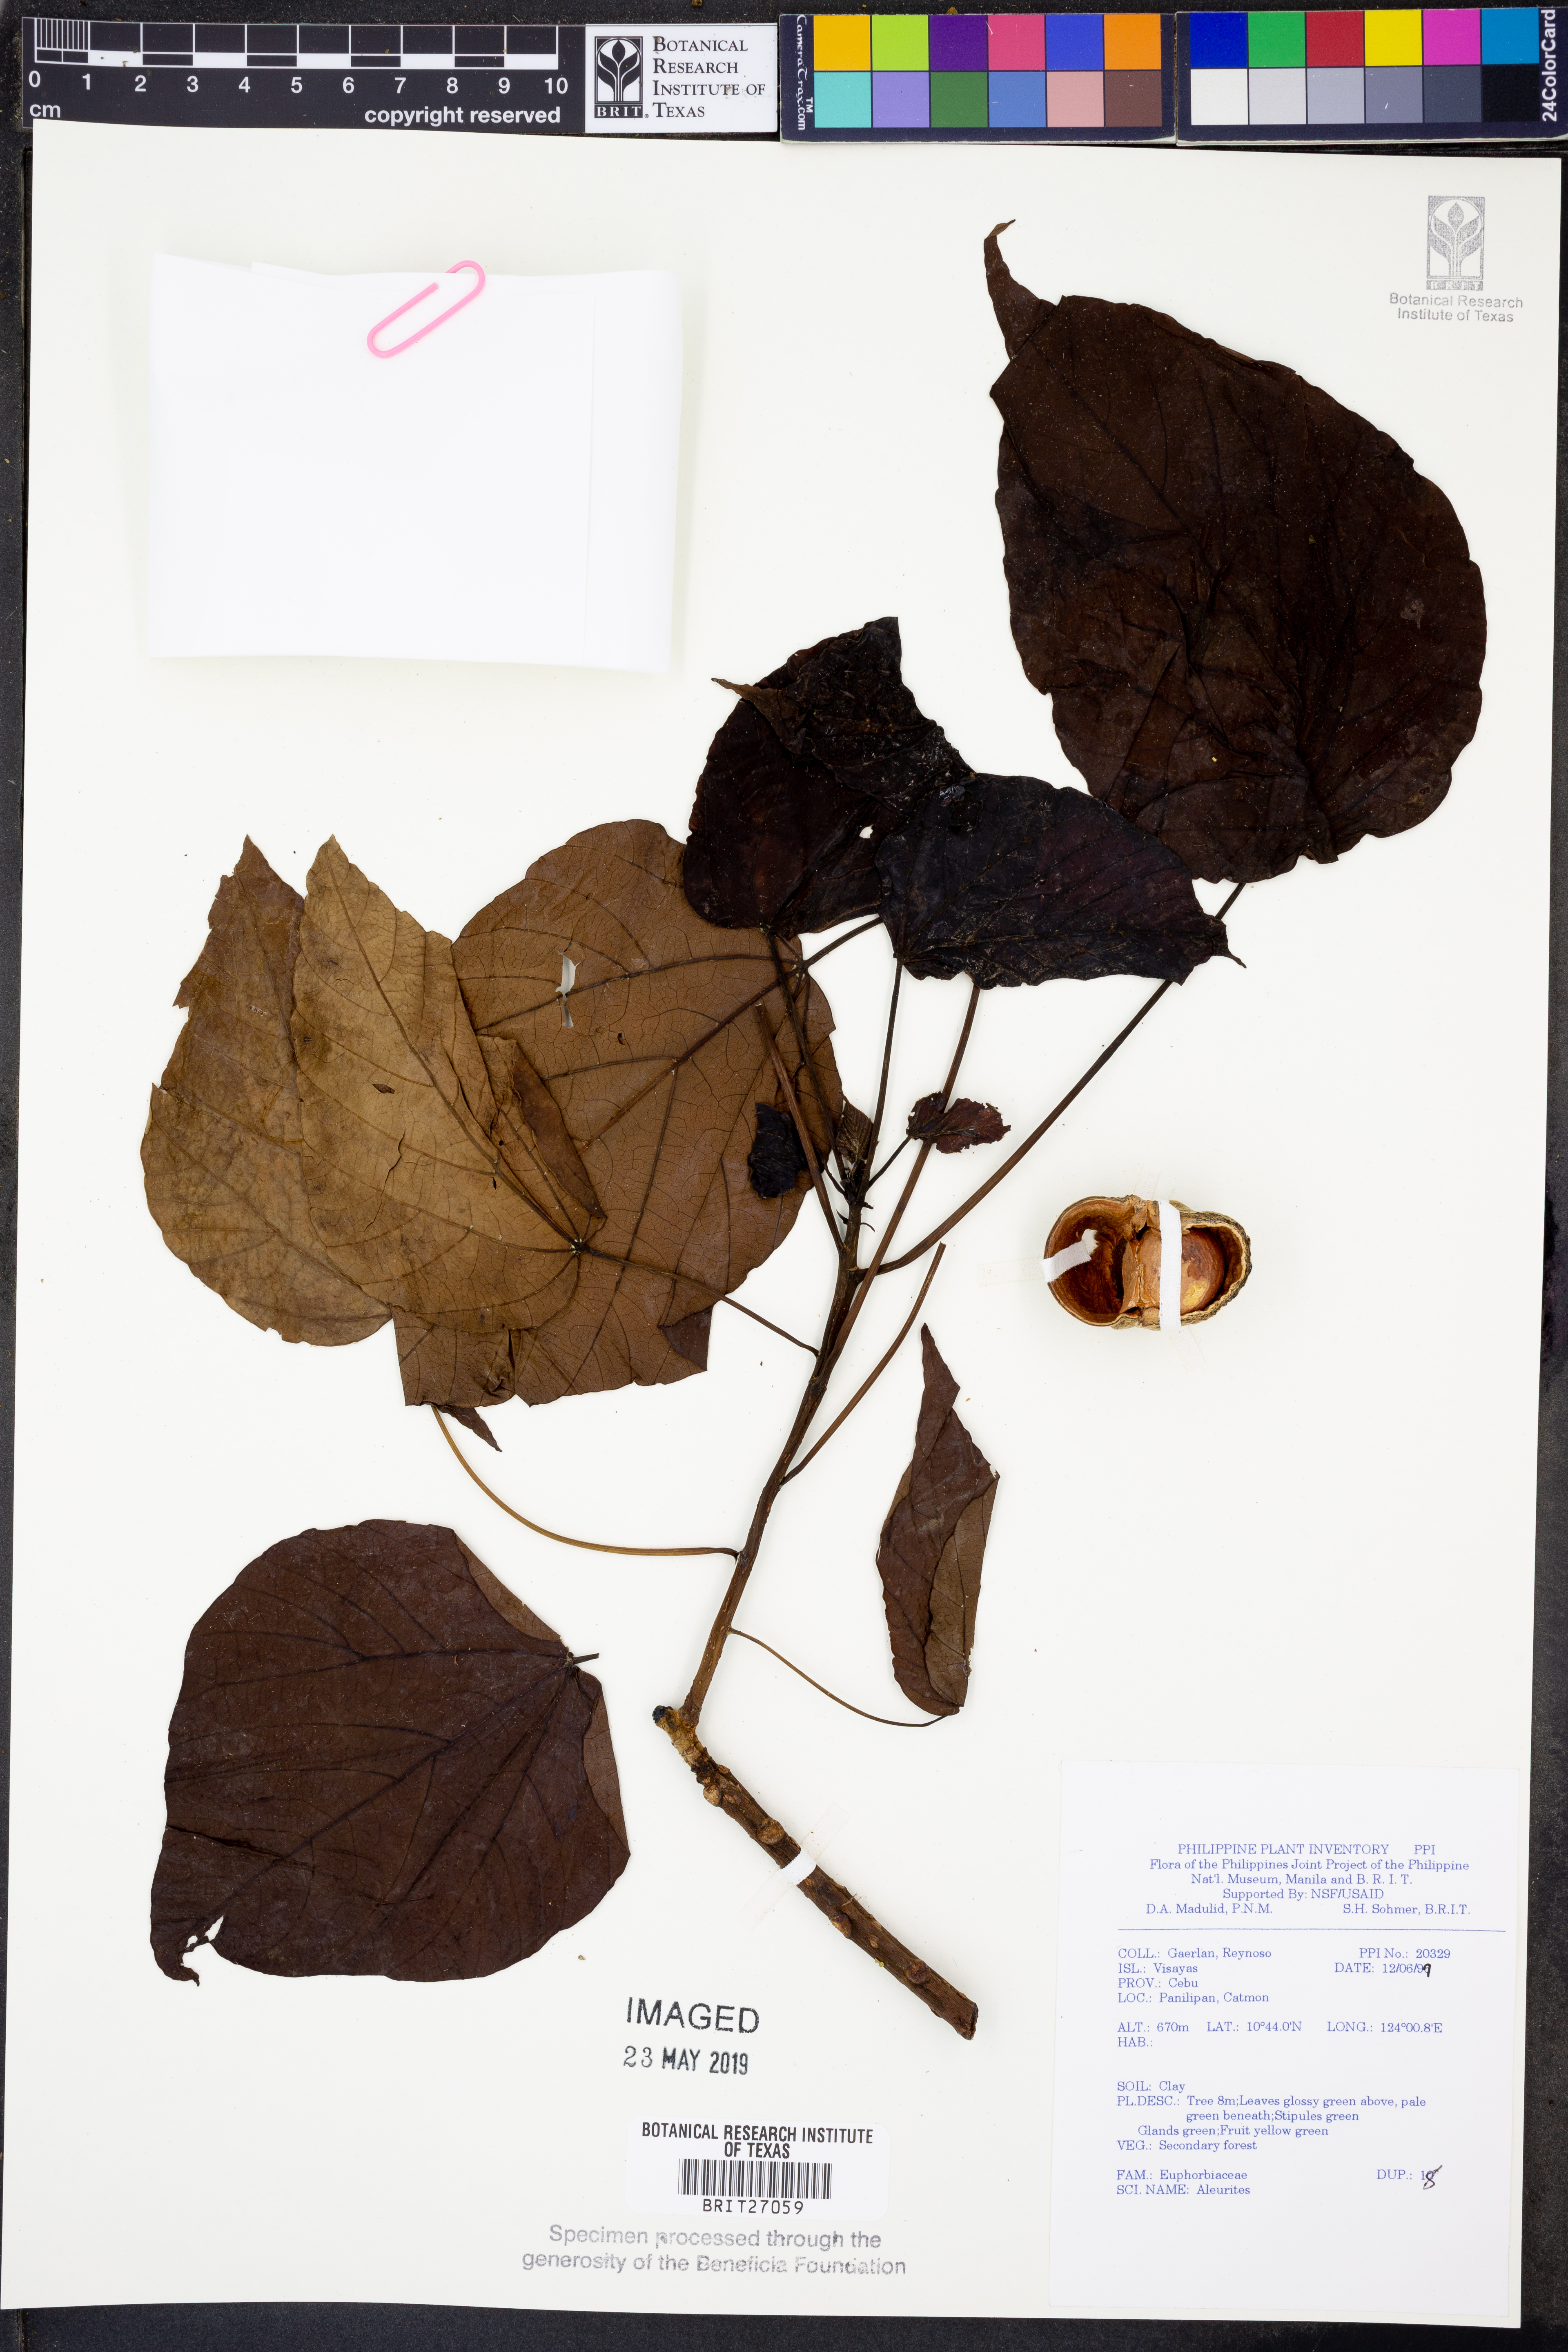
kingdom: Plantae
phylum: Tracheophyta
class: Magnoliopsida
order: Malpighiales
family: Euphorbiaceae
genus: Aleurites
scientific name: Aleurites
